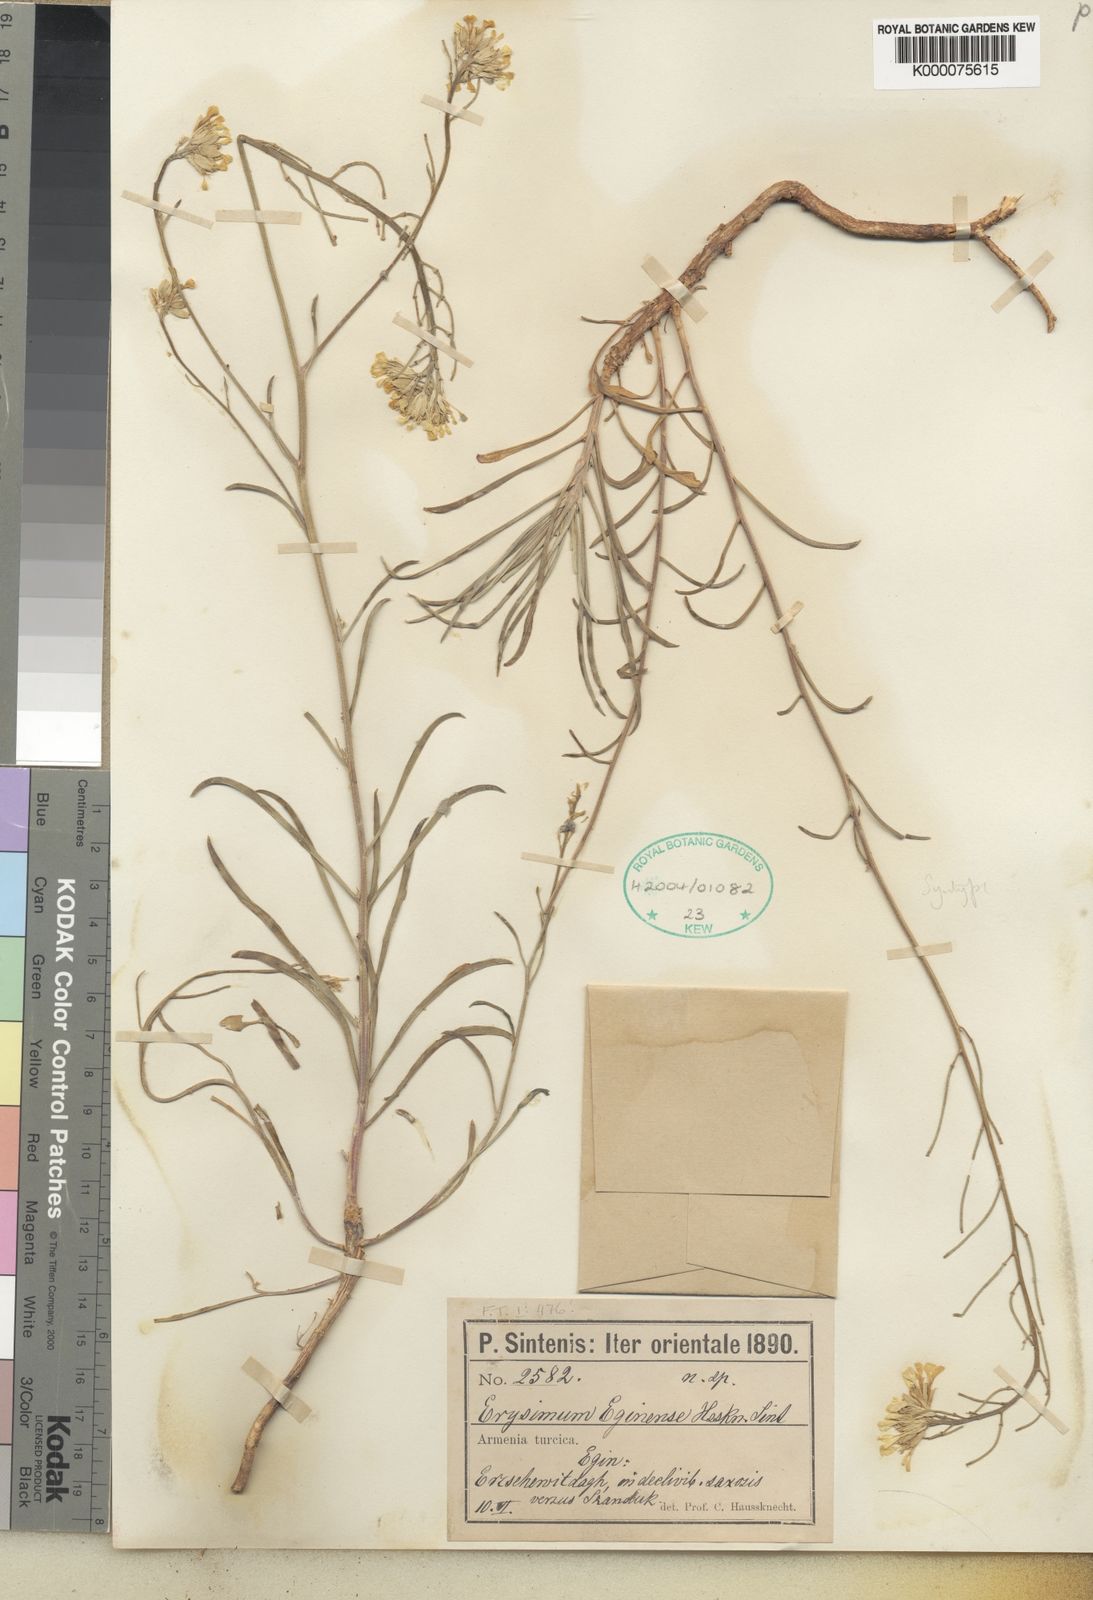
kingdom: Plantae
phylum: Tracheophyta
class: Magnoliopsida
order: Brassicales
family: Brassicaceae
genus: Erysimum
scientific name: Erysimum smyrnaeum
